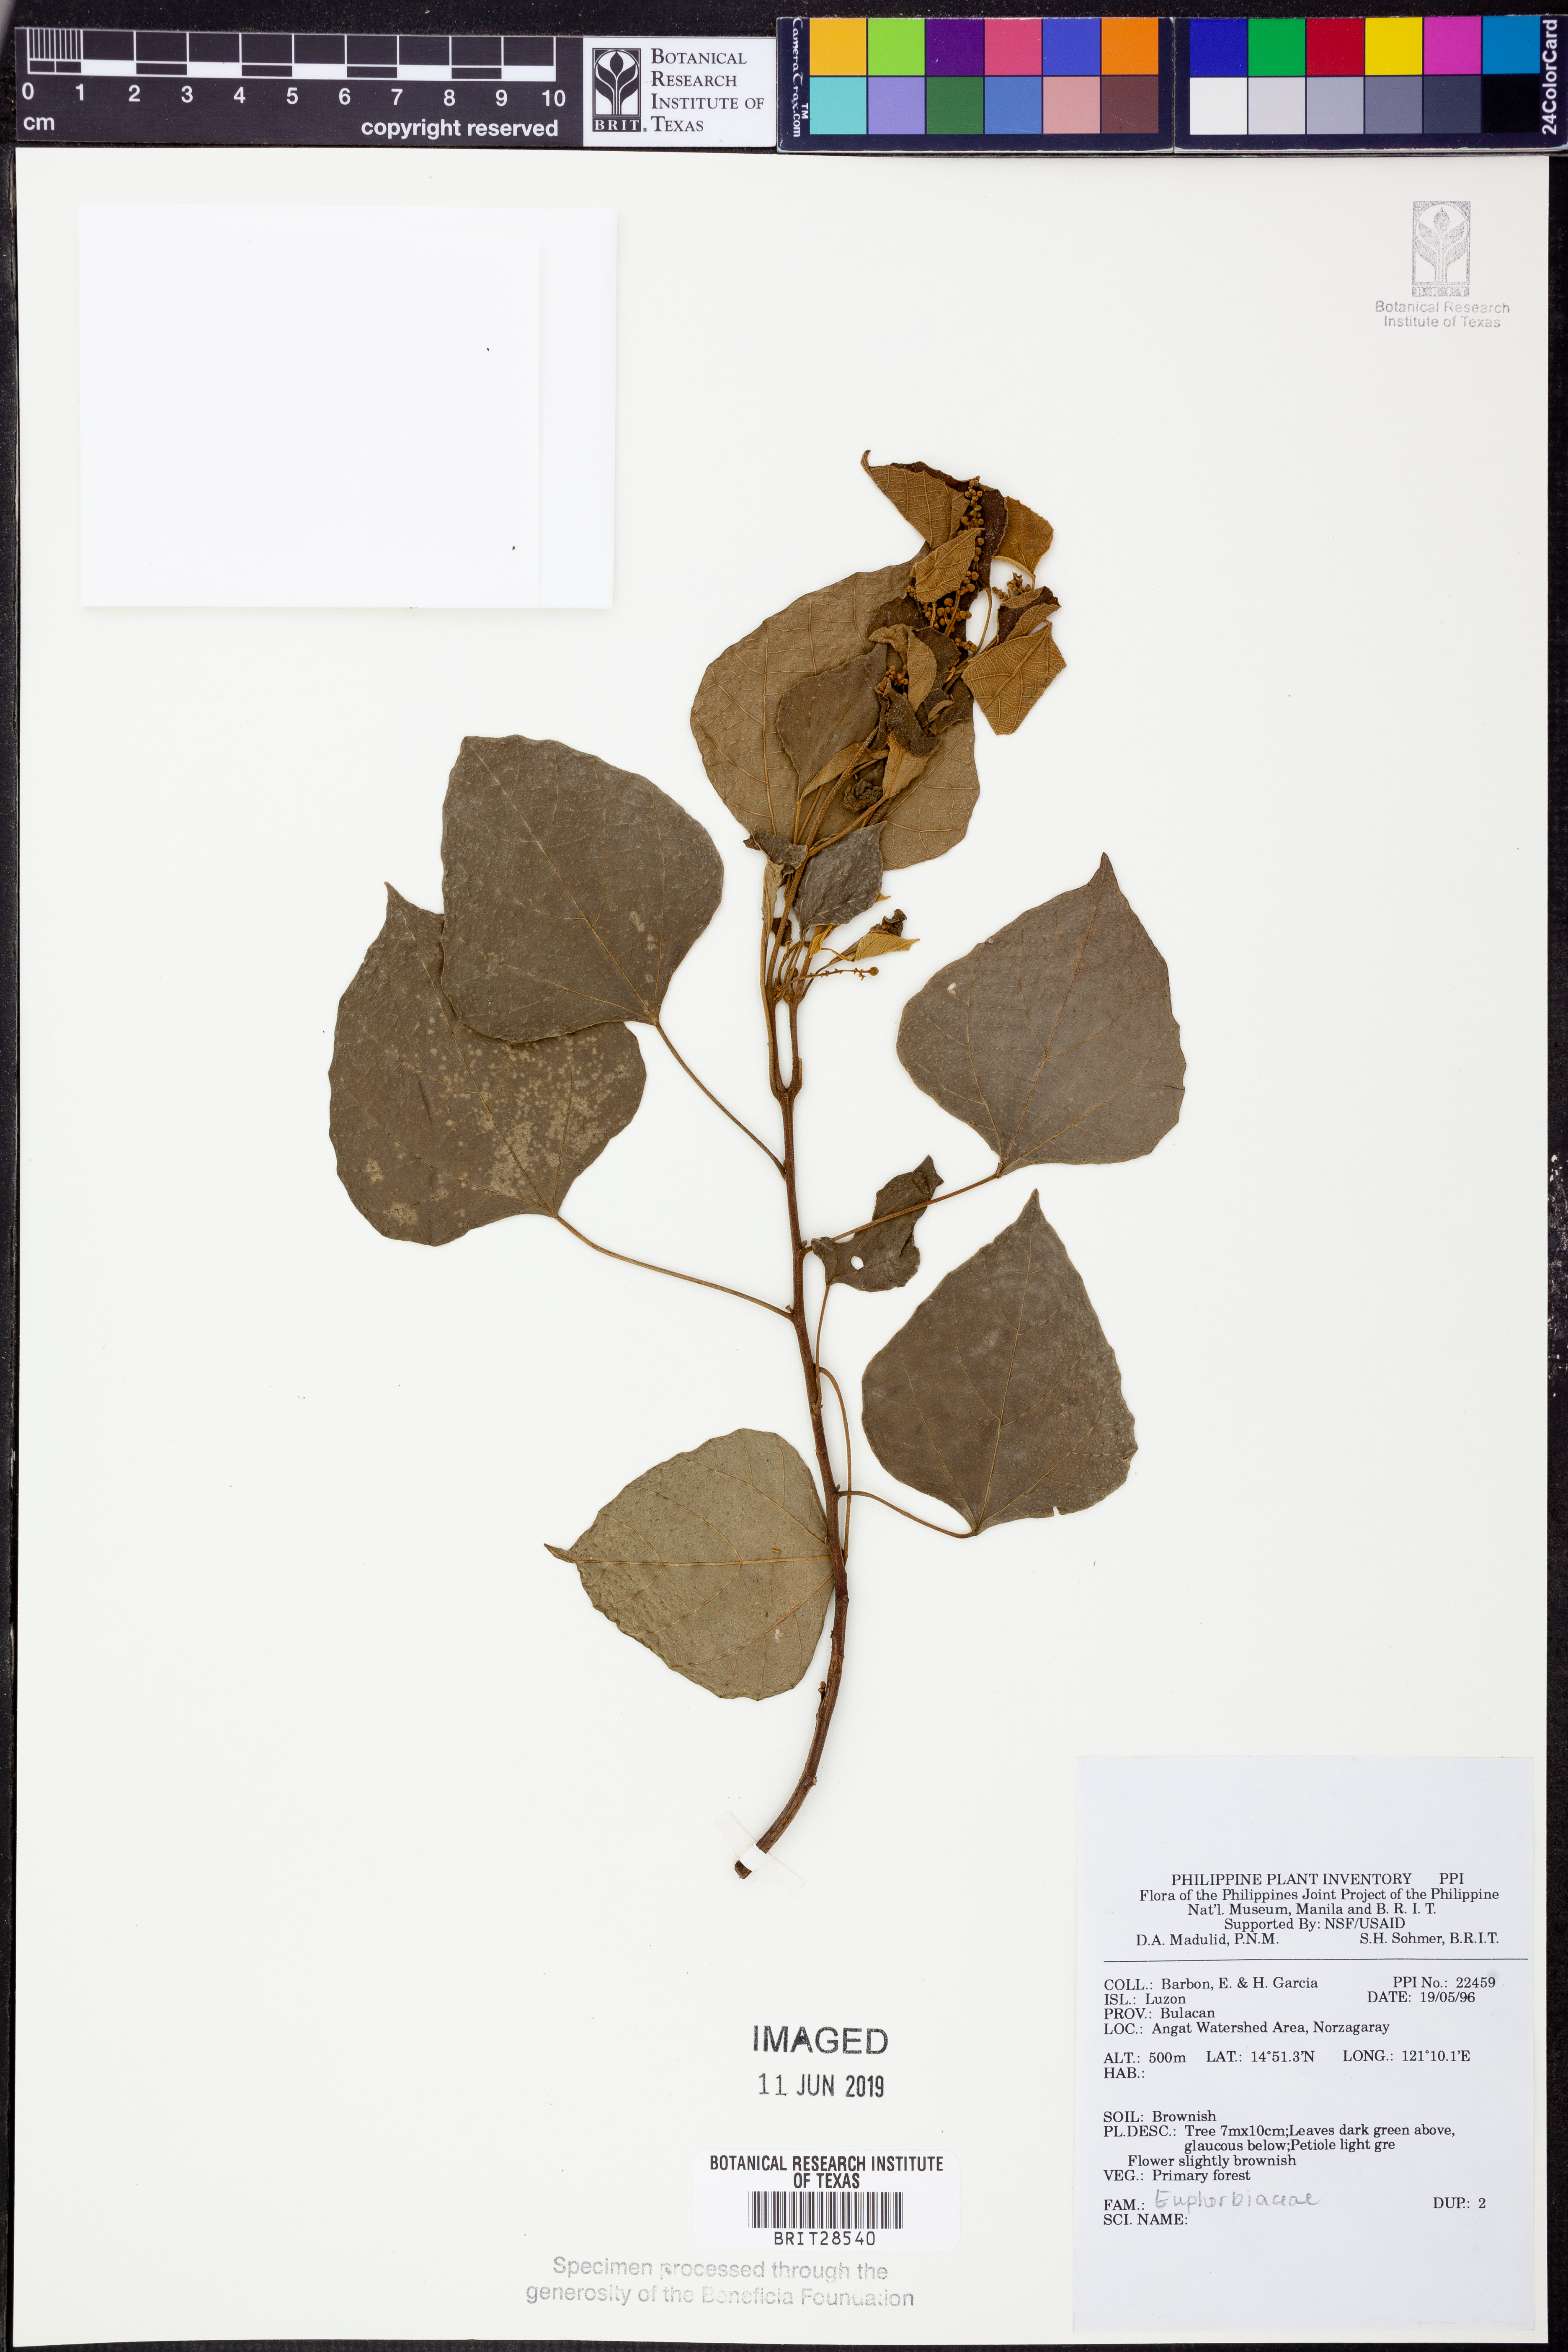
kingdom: Plantae
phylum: Tracheophyta
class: Magnoliopsida
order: Malpighiales
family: Euphorbiaceae
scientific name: Euphorbiaceae
